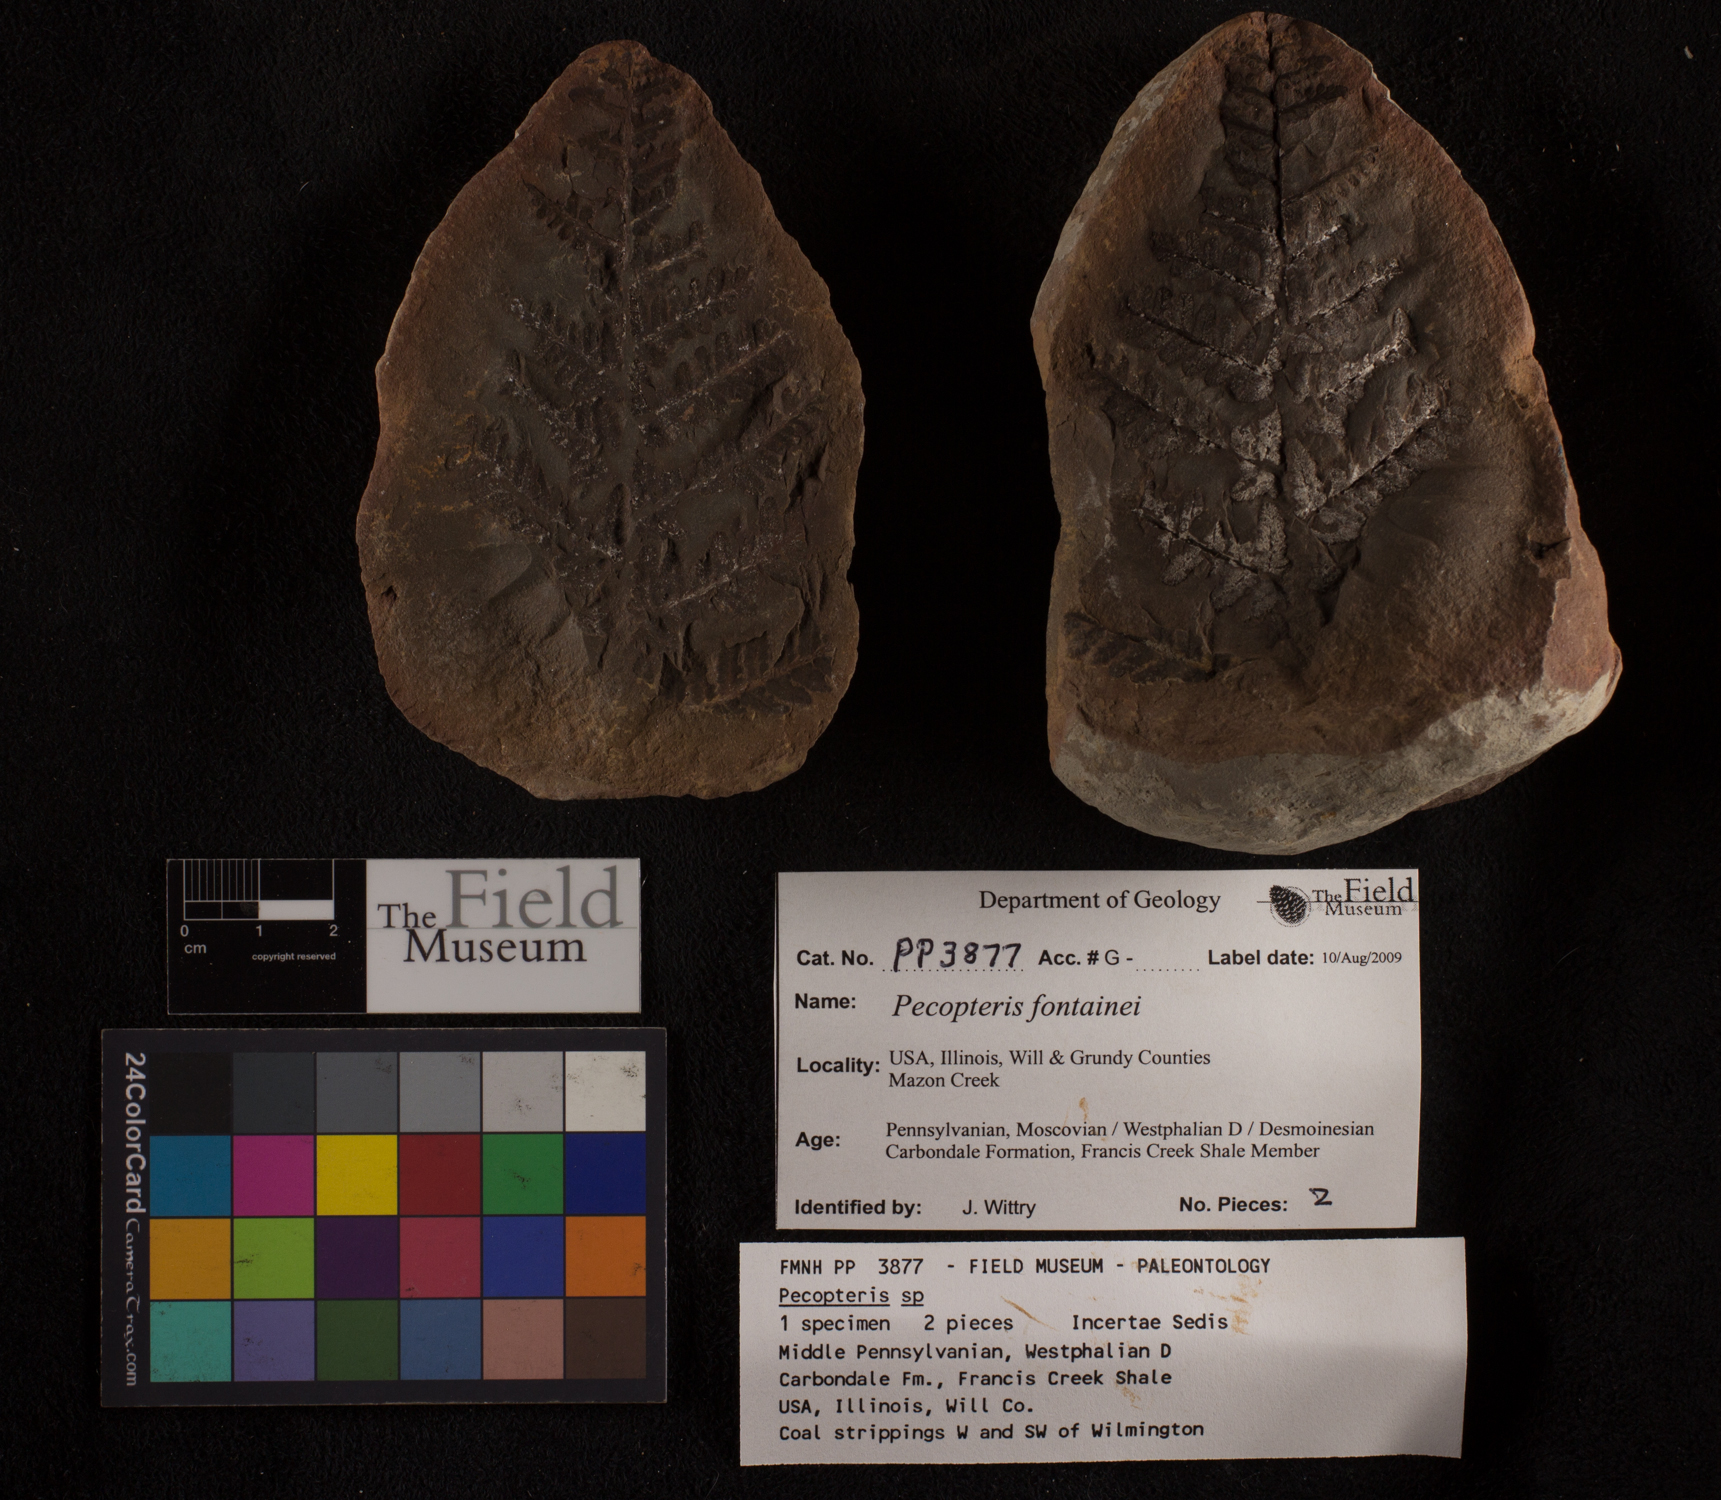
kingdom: Plantae
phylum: Tracheophyta
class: Polypodiopsida
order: Marattiales
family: Asterothecaceae
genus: Pecopteris
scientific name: Pecopteris
